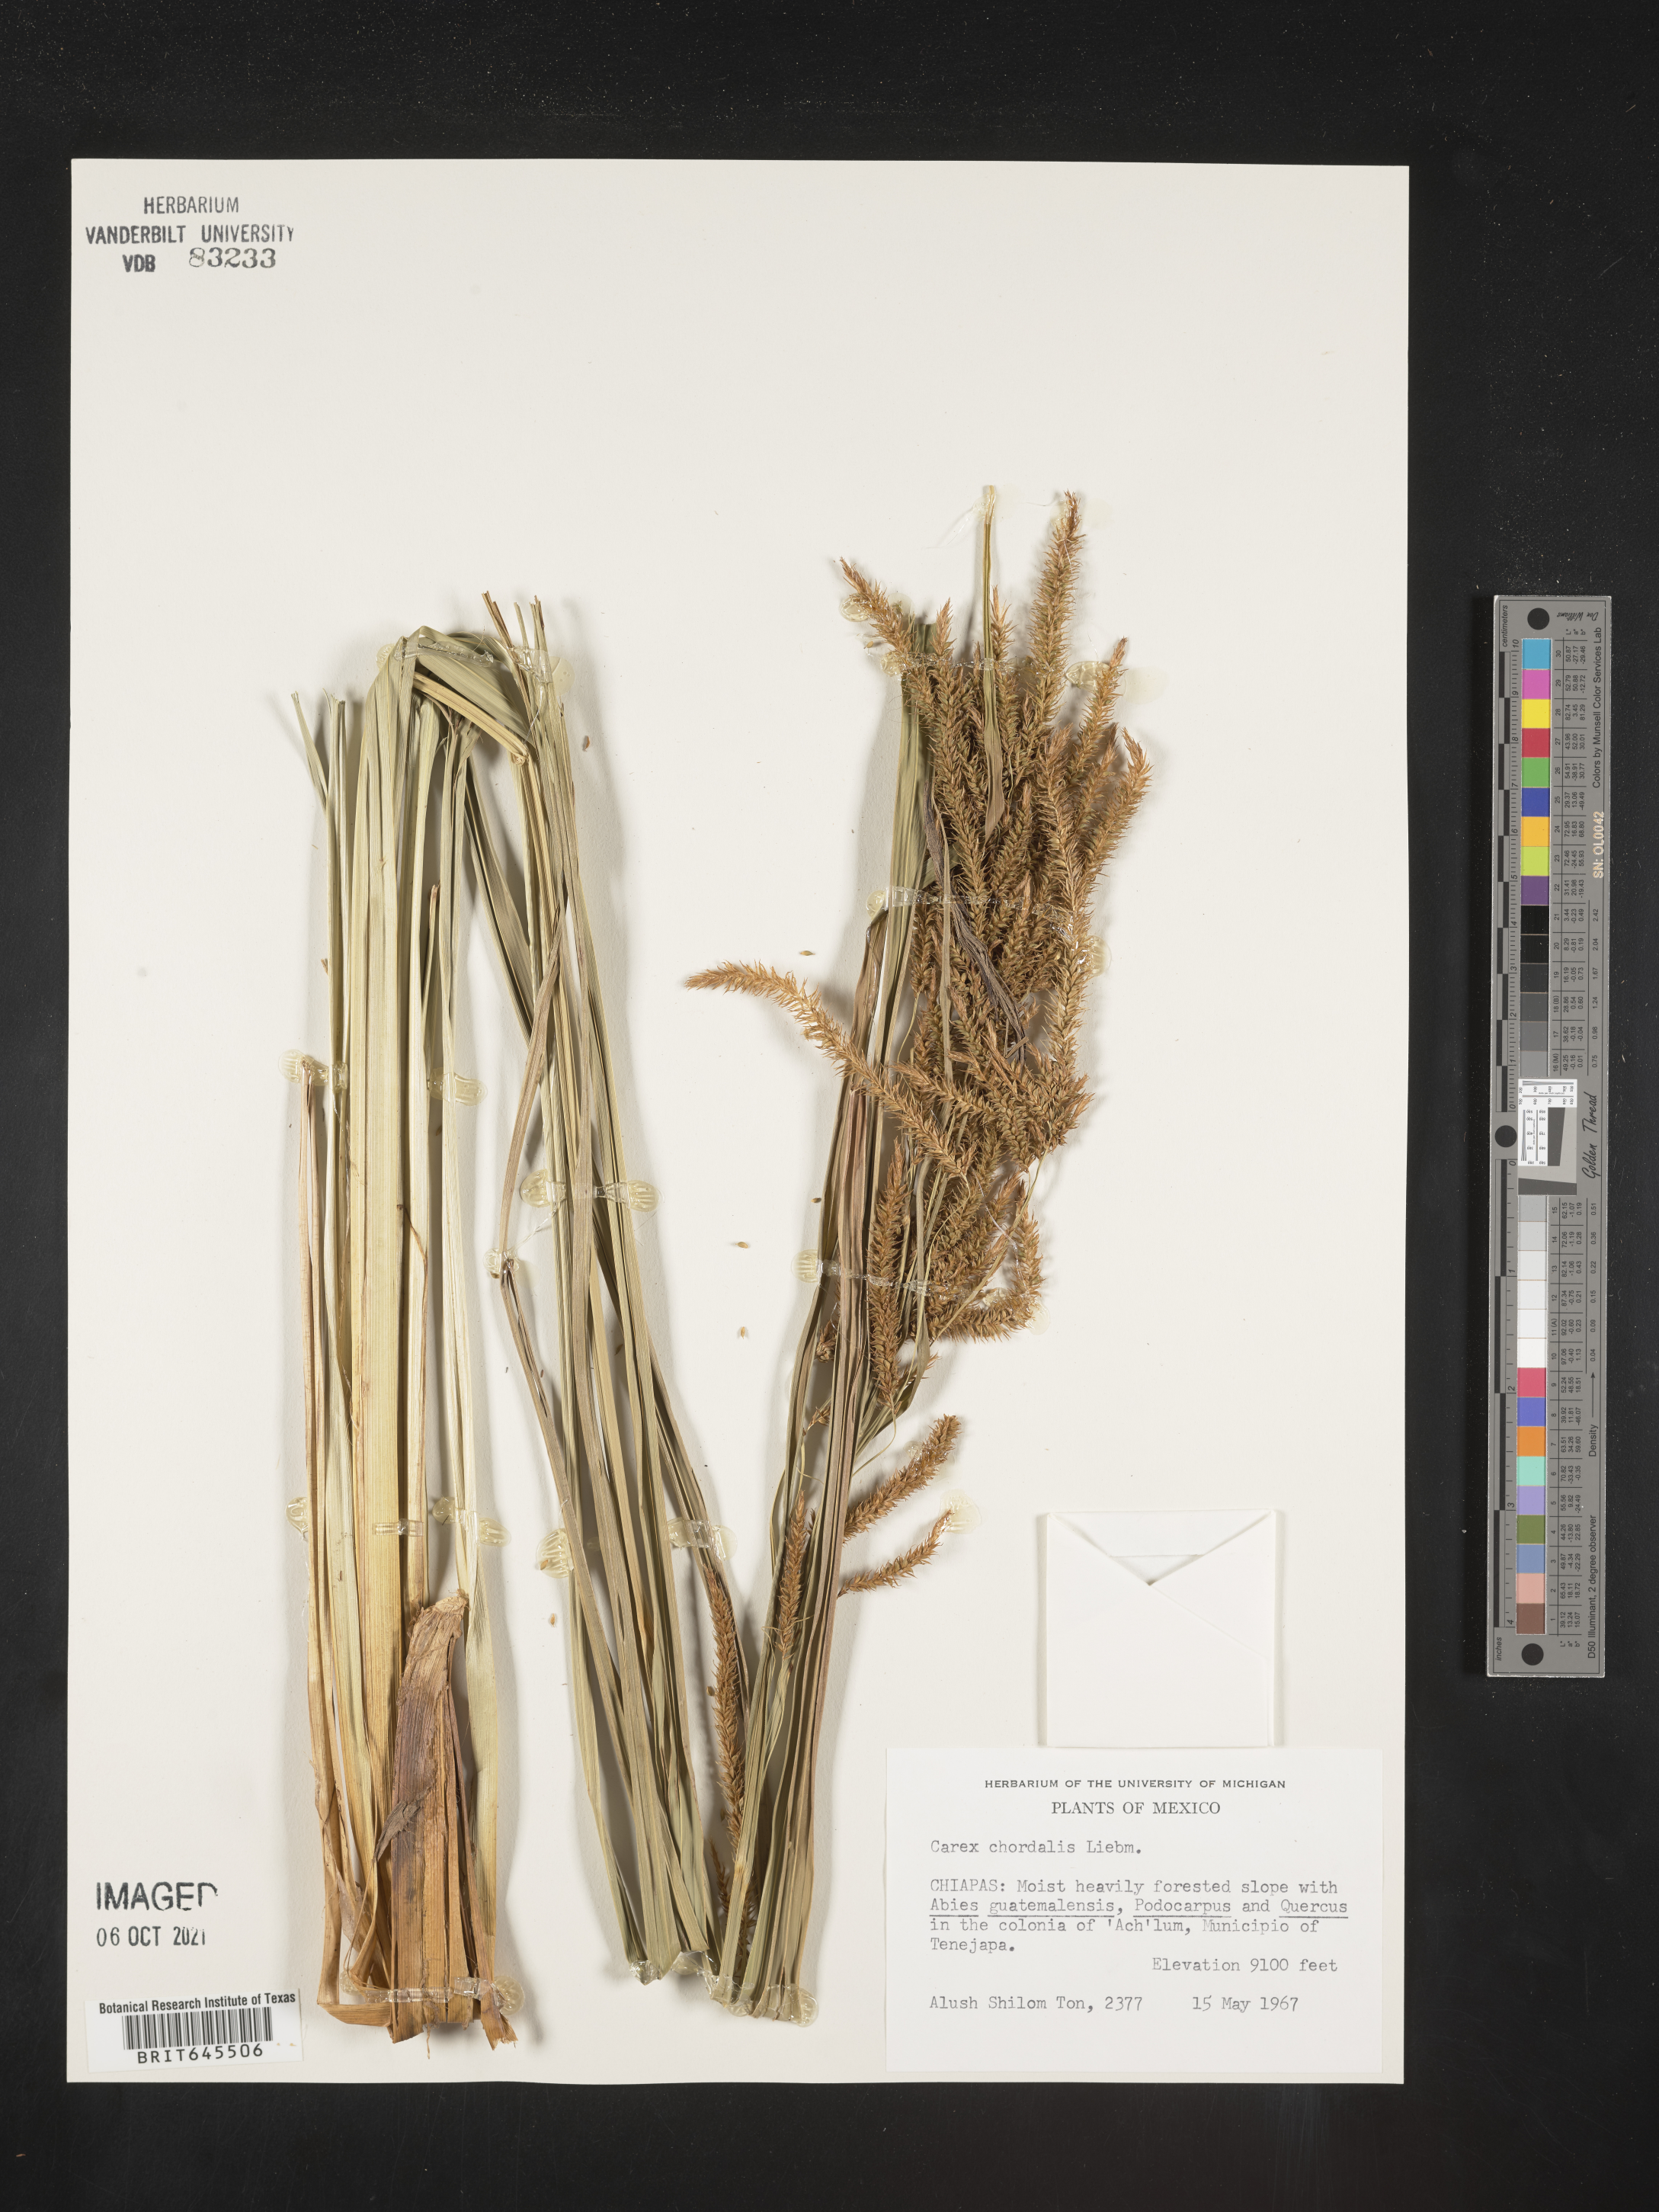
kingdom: Plantae
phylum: Tracheophyta
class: Liliopsida
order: Poales
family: Cyperaceae
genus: Carex
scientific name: Carex
